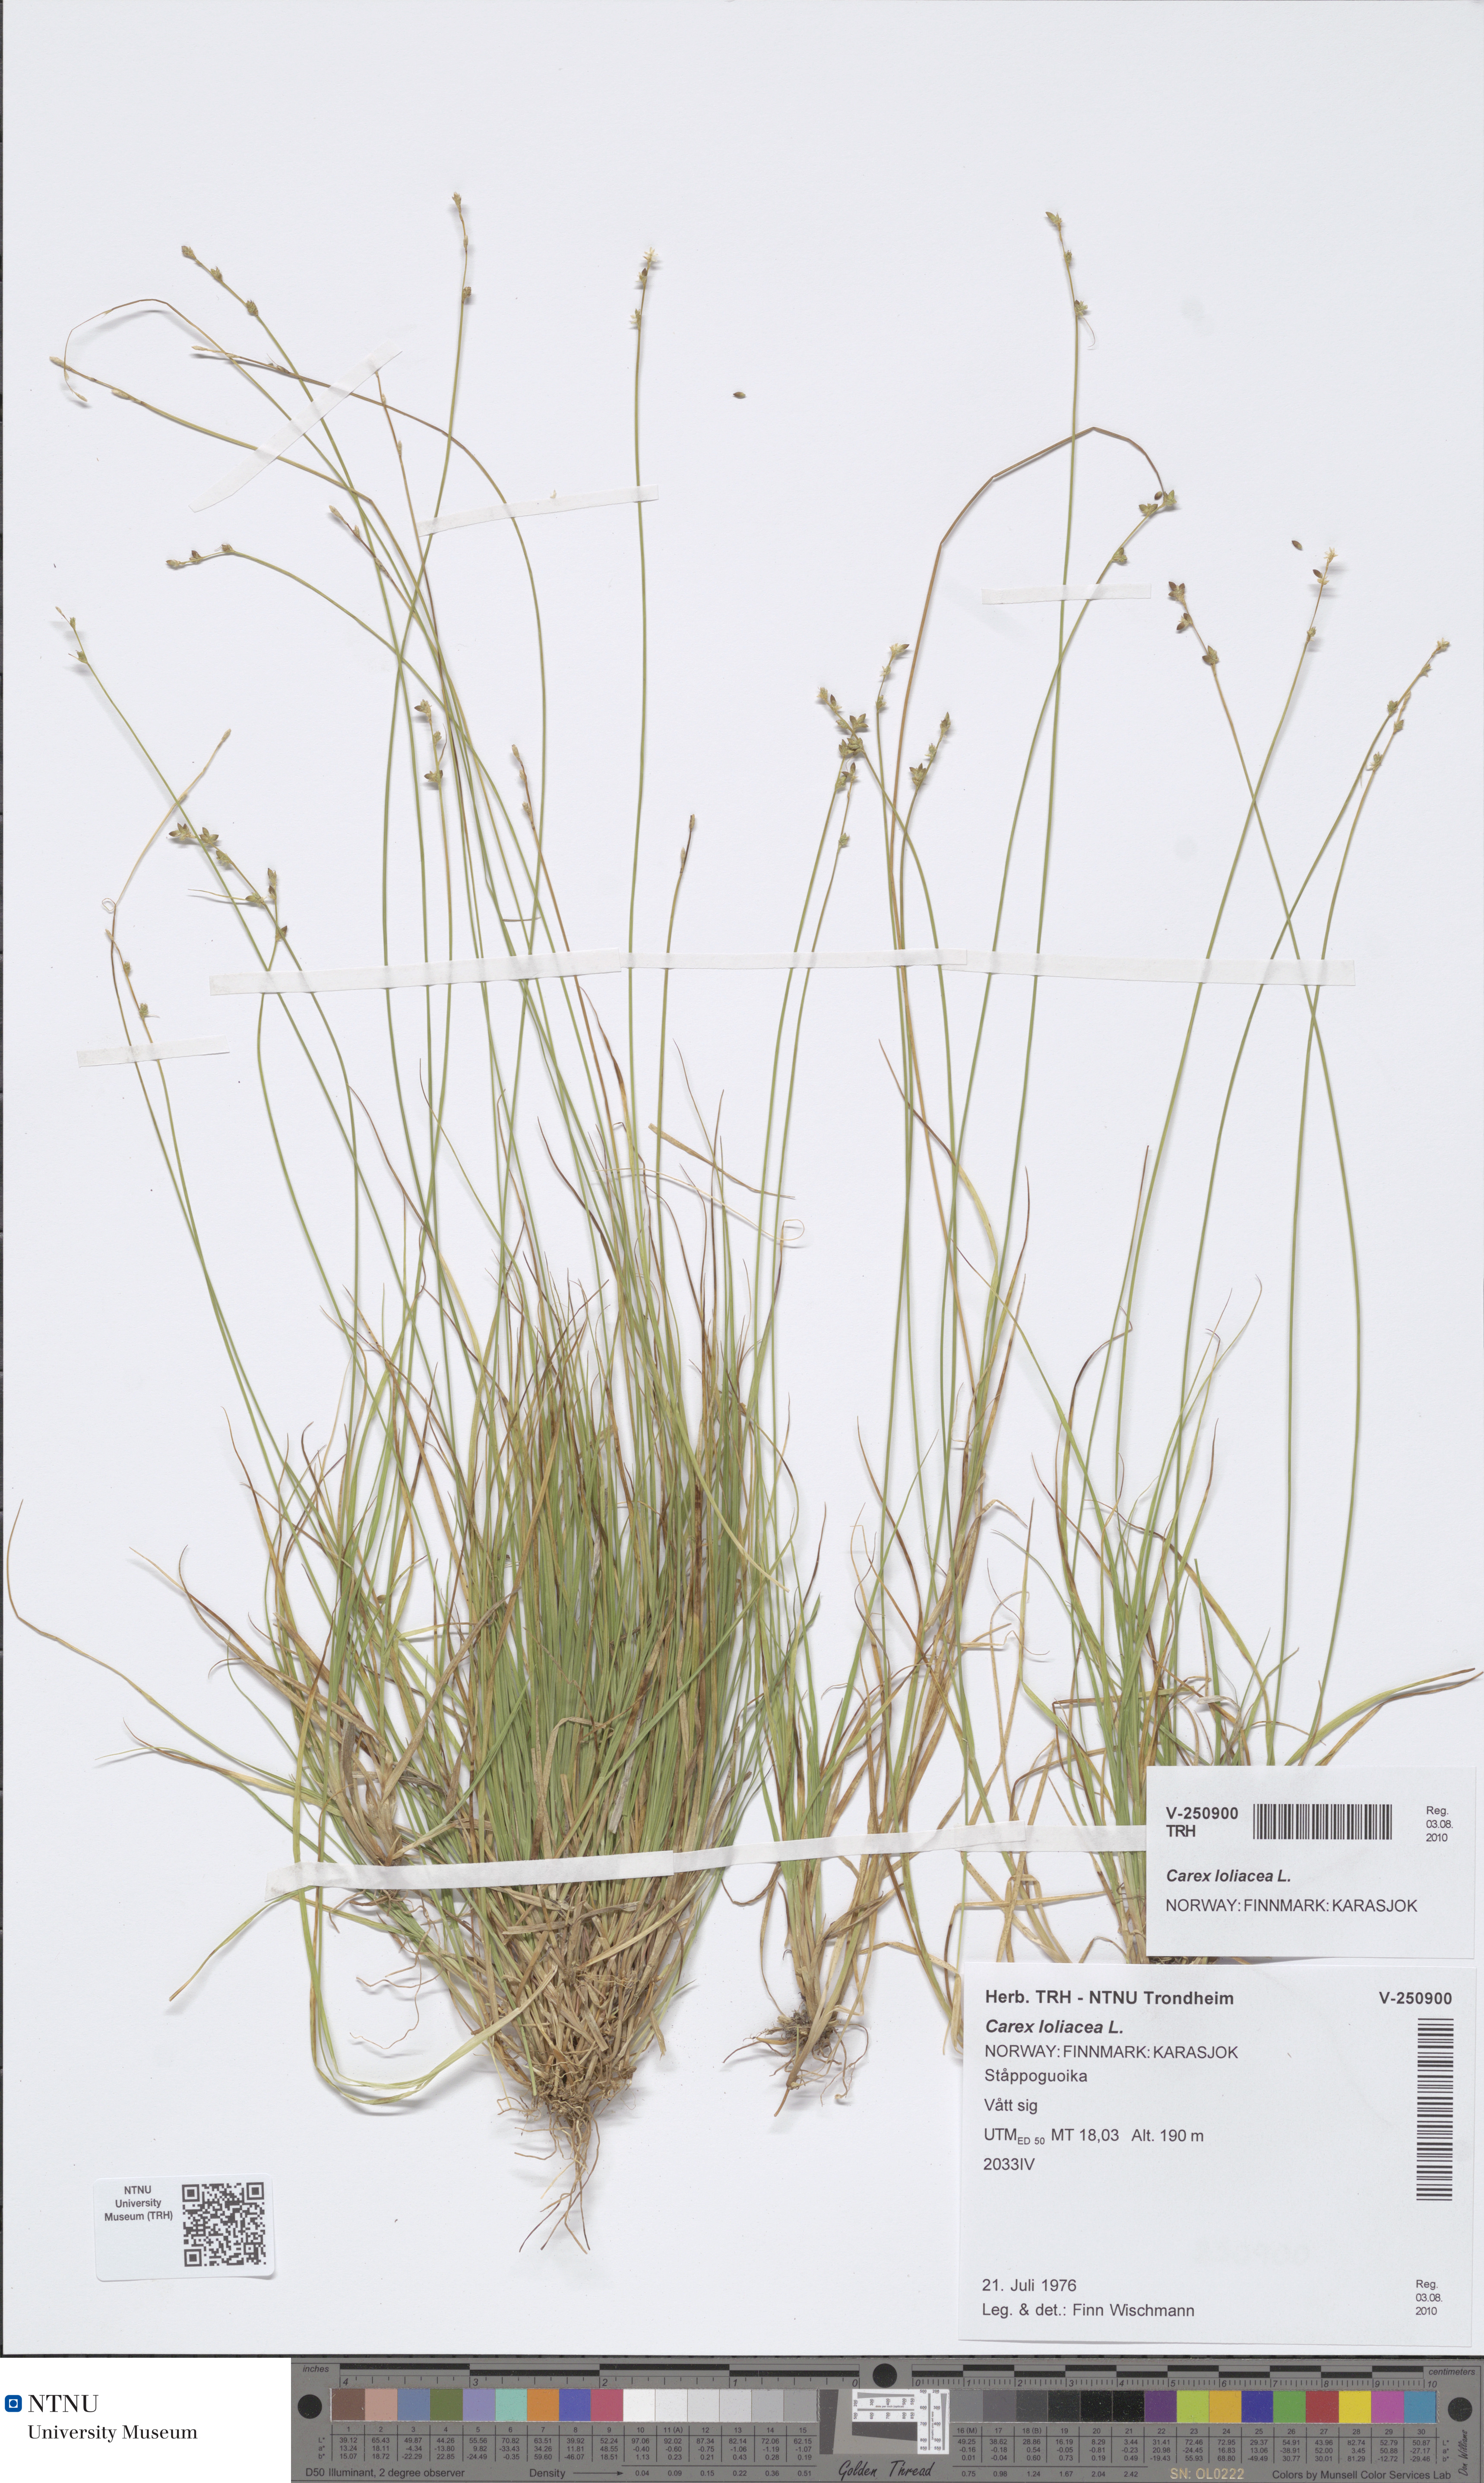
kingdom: Plantae
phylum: Tracheophyta
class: Liliopsida
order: Poales
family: Cyperaceae
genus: Carex
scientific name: Carex loliacea
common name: Ryegrass sedge
